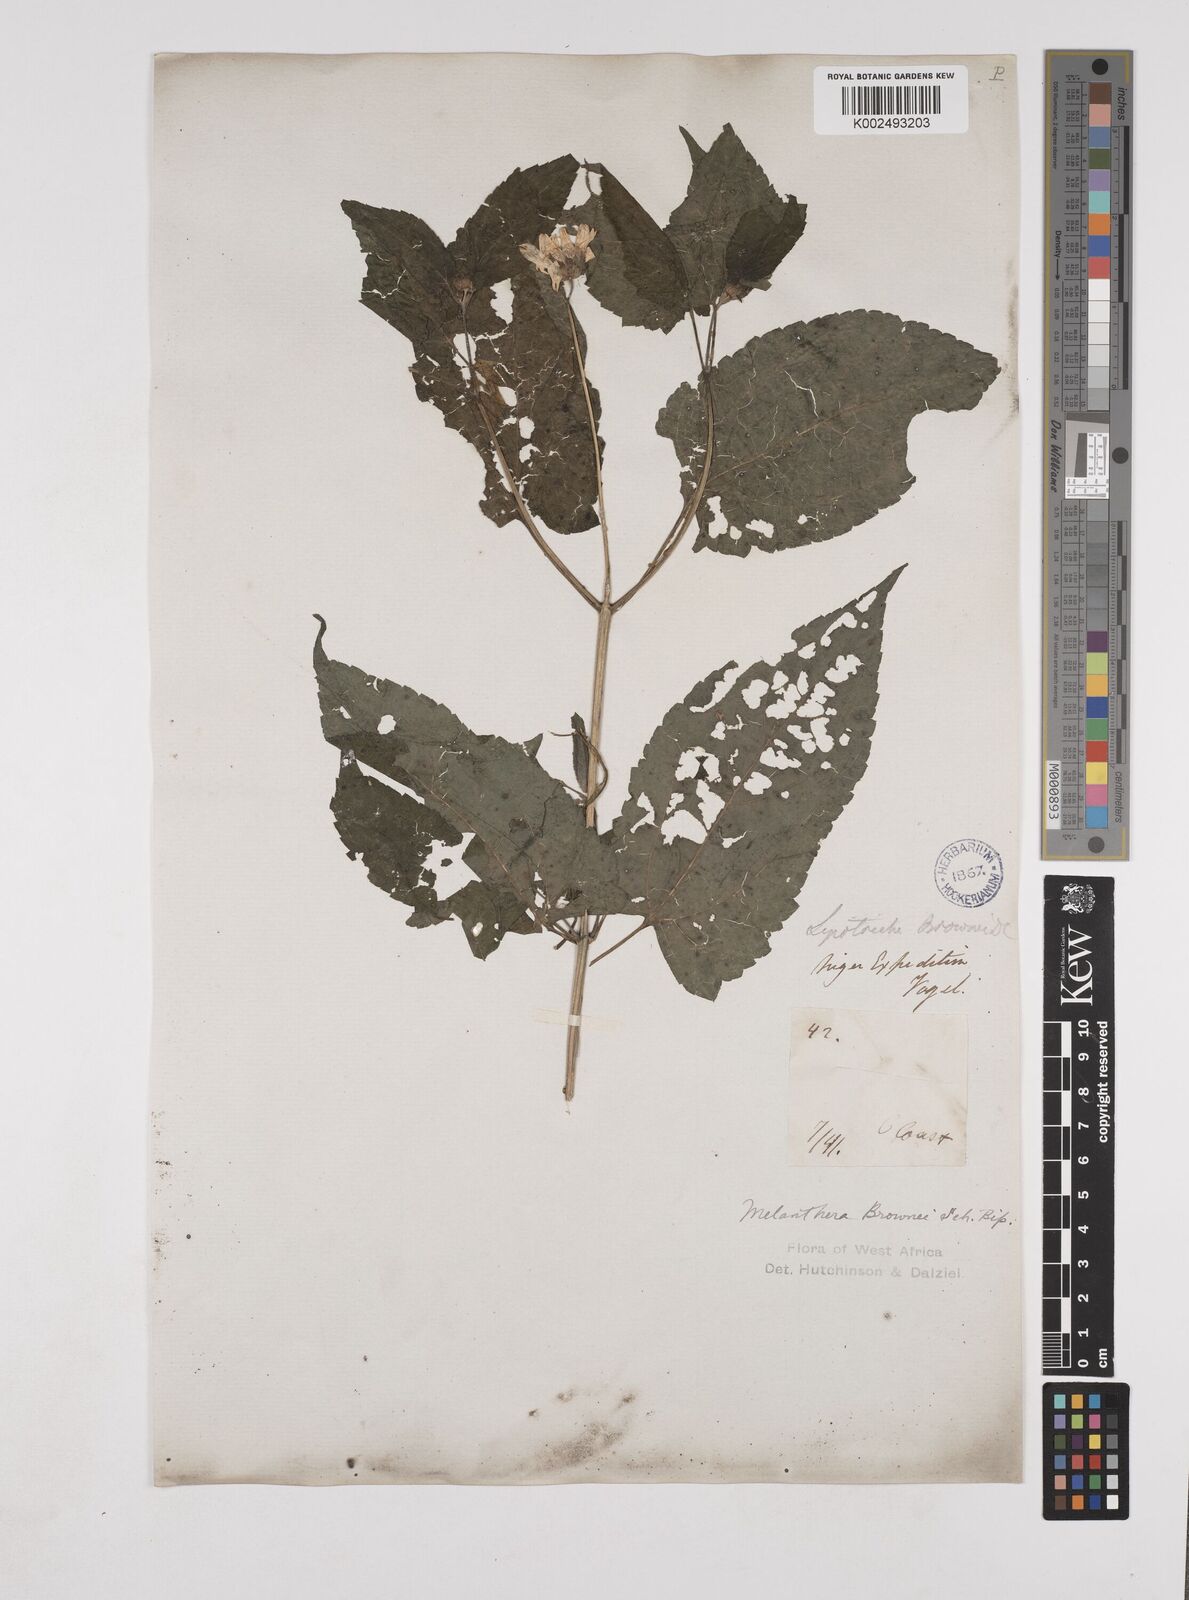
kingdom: Plantae
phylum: Tracheophyta
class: Magnoliopsida
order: Asterales
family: Asteraceae
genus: Lipotriche
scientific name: Lipotriche scandens
